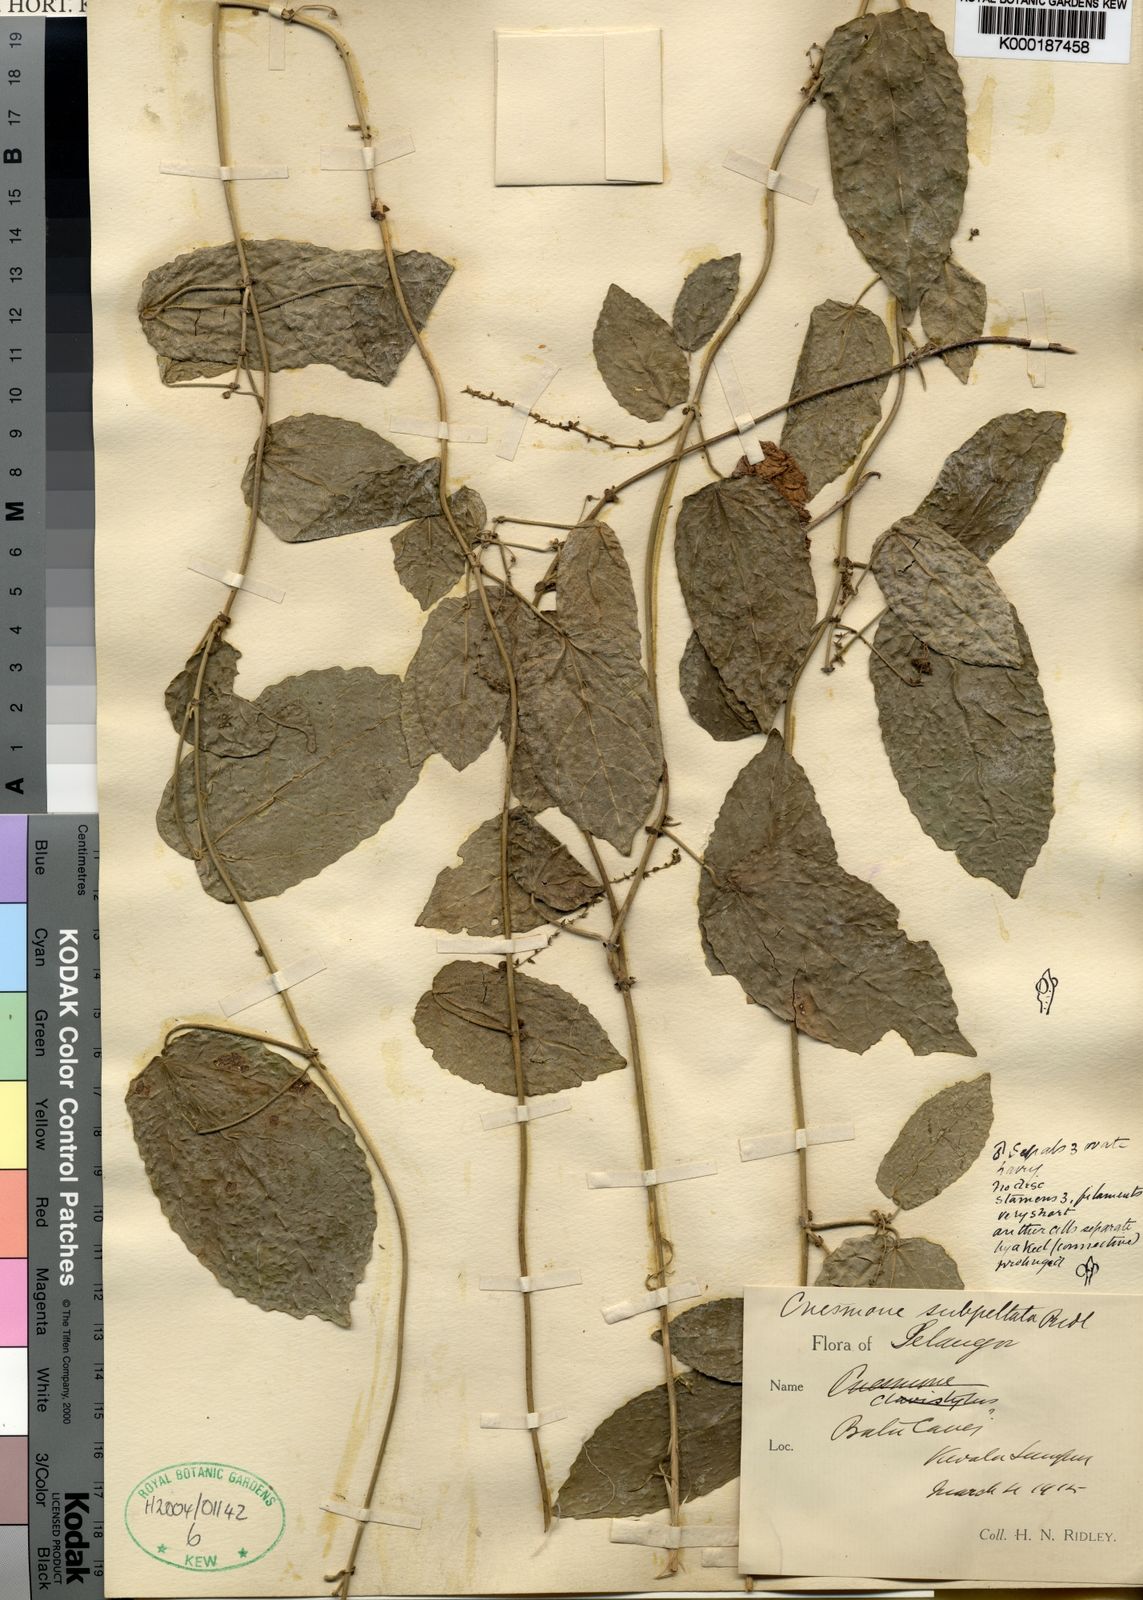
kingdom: Plantae
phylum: Tracheophyta
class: Magnoliopsida
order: Malpighiales
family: Euphorbiaceae
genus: Cnesmone
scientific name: Cnesmone subpeltata
